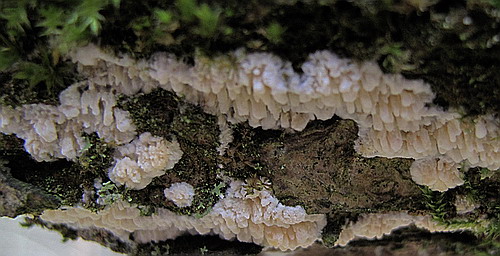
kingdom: Fungi
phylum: Basidiomycota
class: Agaricomycetes
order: Hymenochaetales
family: Schizoporaceae
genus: Xylodon
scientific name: Xylodon radula
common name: grovtandet kalkskind
